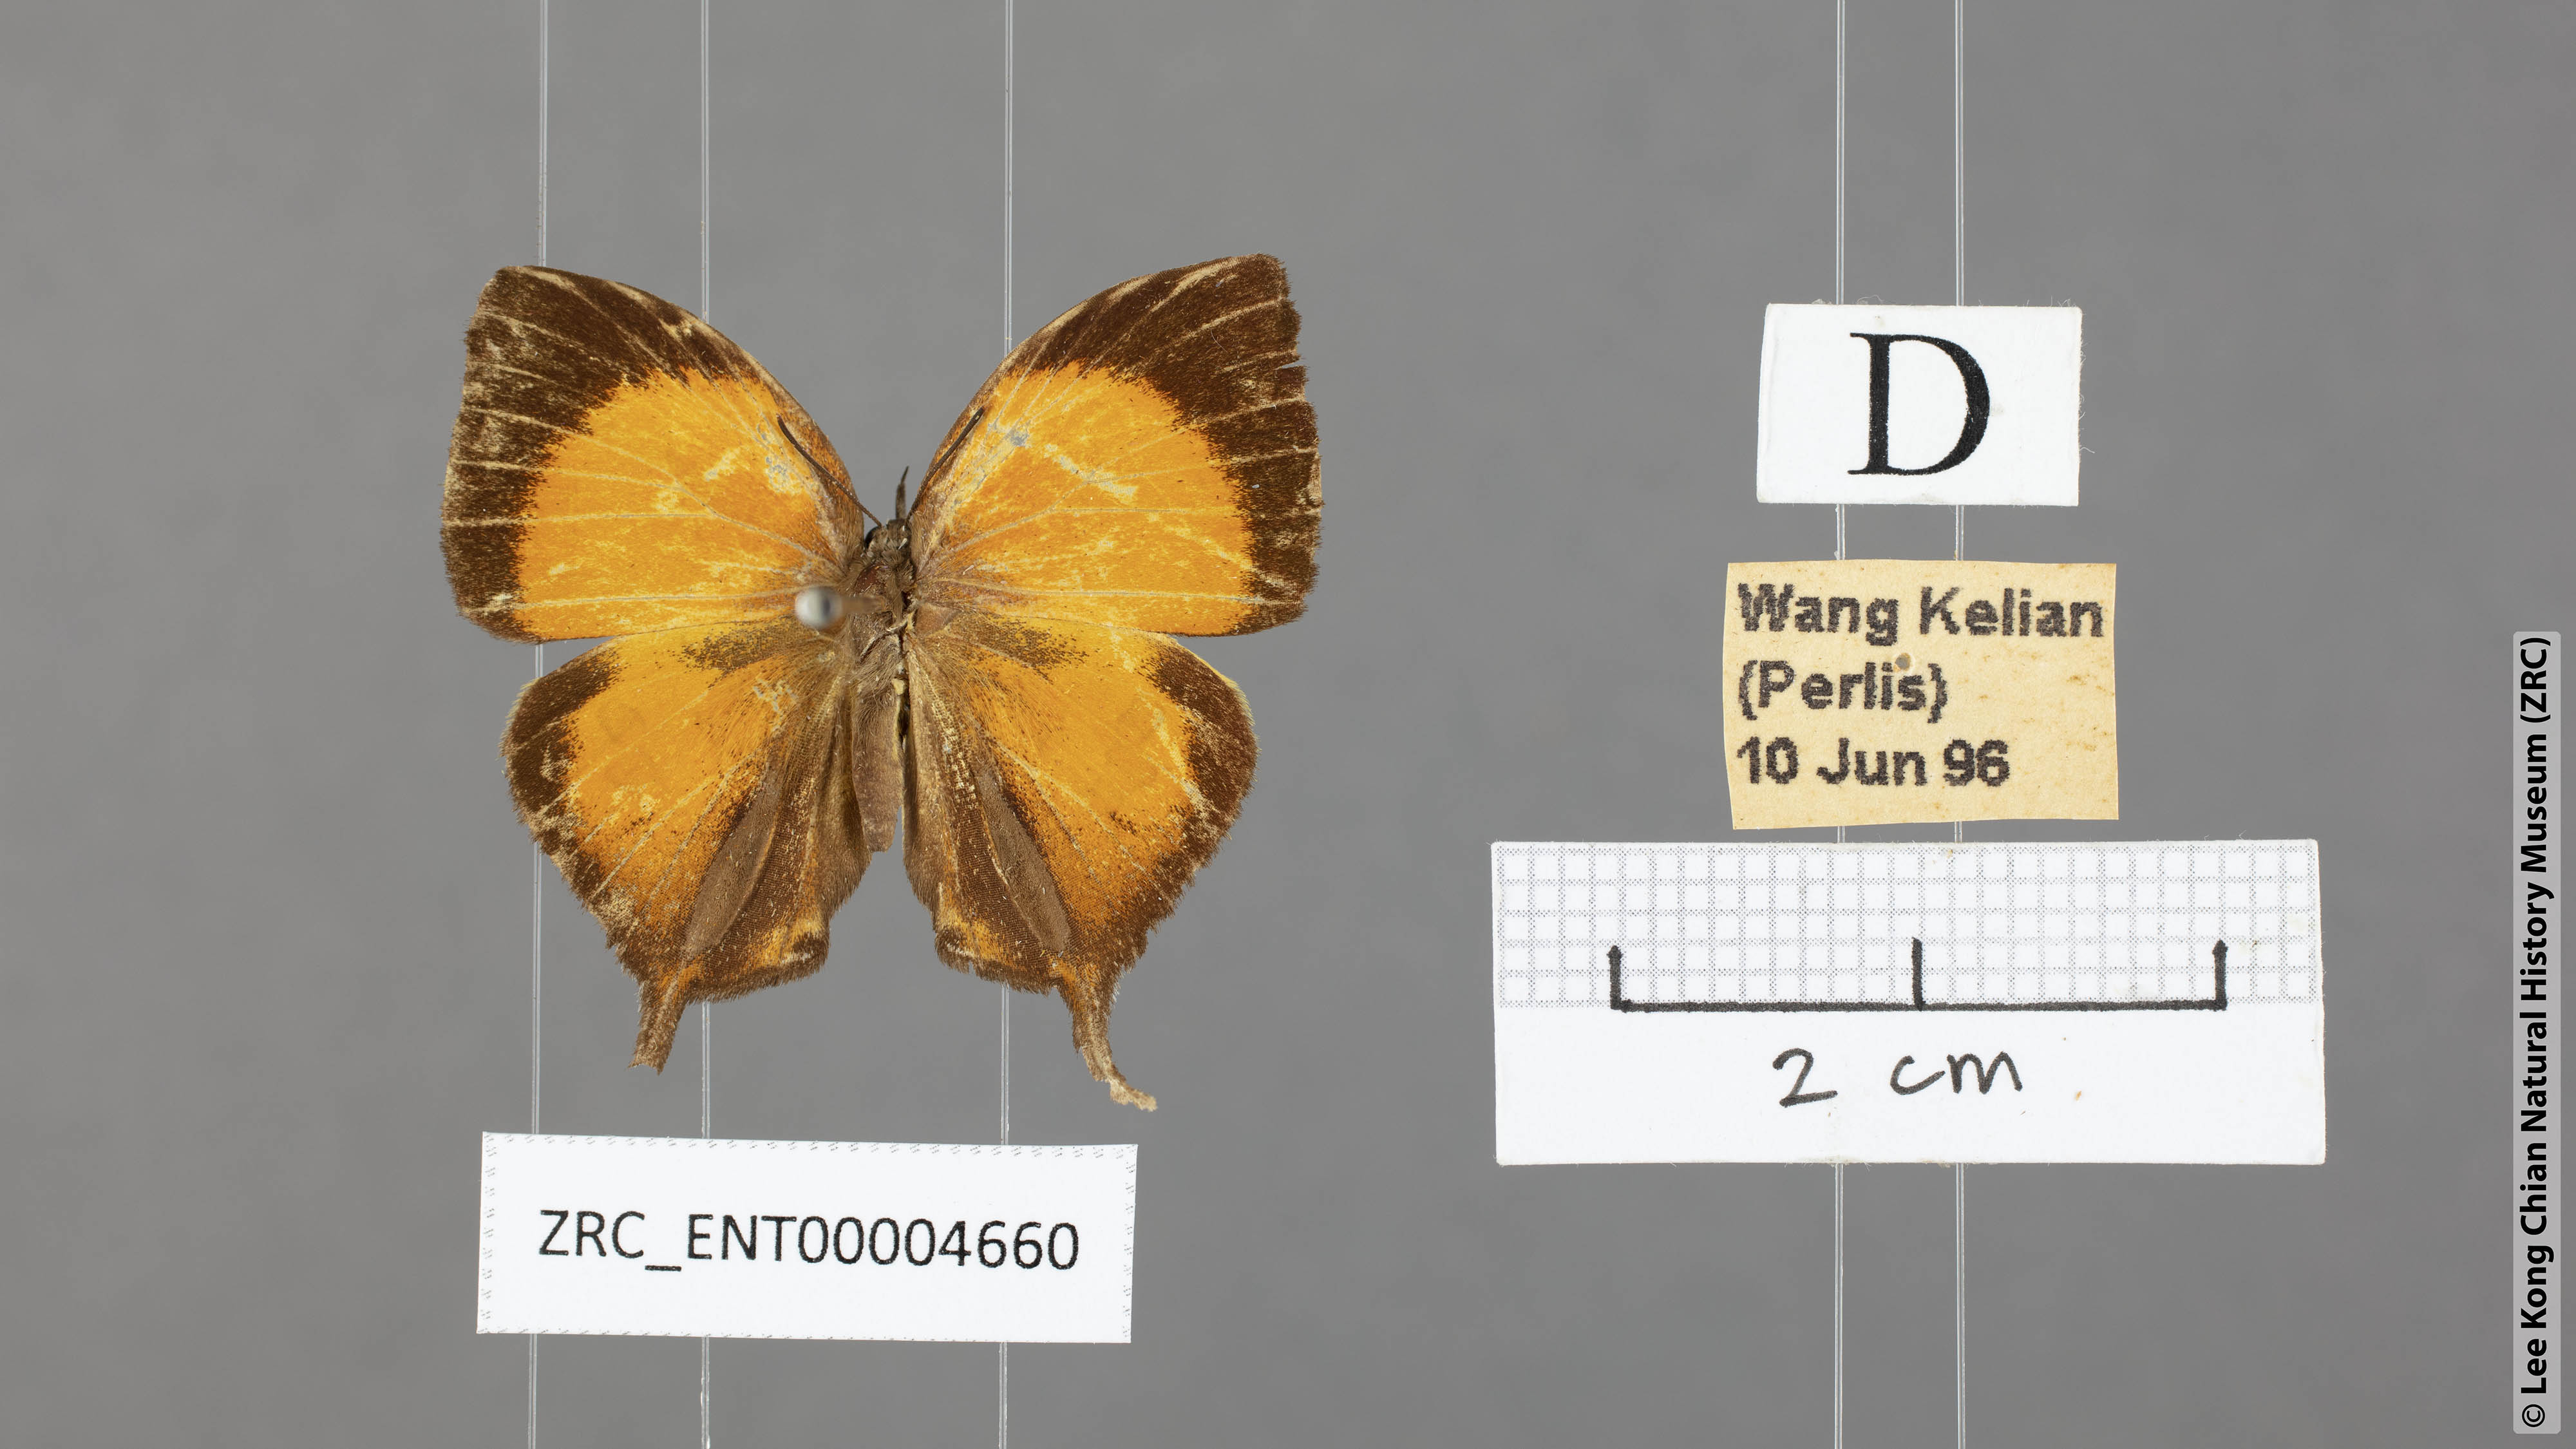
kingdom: Animalia
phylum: Arthropoda
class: Insecta
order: Lepidoptera
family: Lycaenidae
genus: Yasoda
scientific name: Yasoda pita
